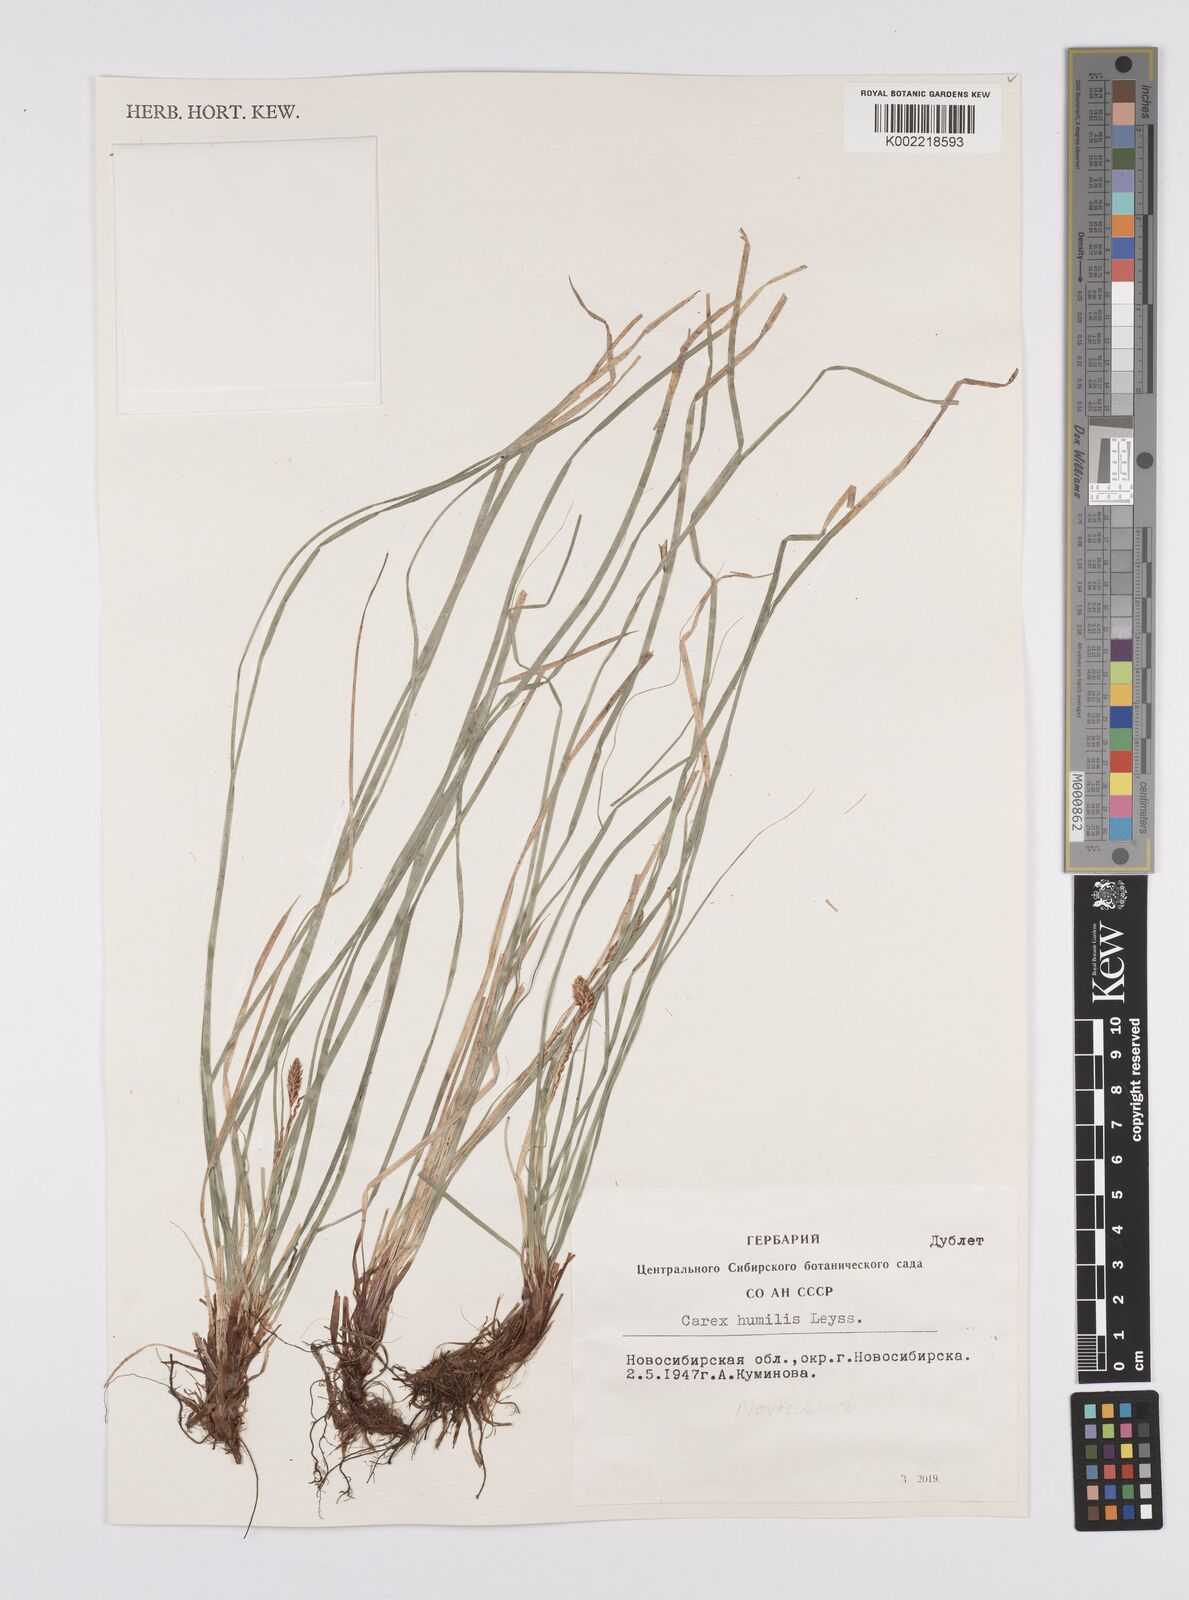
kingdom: Plantae
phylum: Tracheophyta
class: Liliopsida
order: Poales
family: Cyperaceae
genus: Carex
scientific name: Carex humilis
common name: Dwarf sedge
